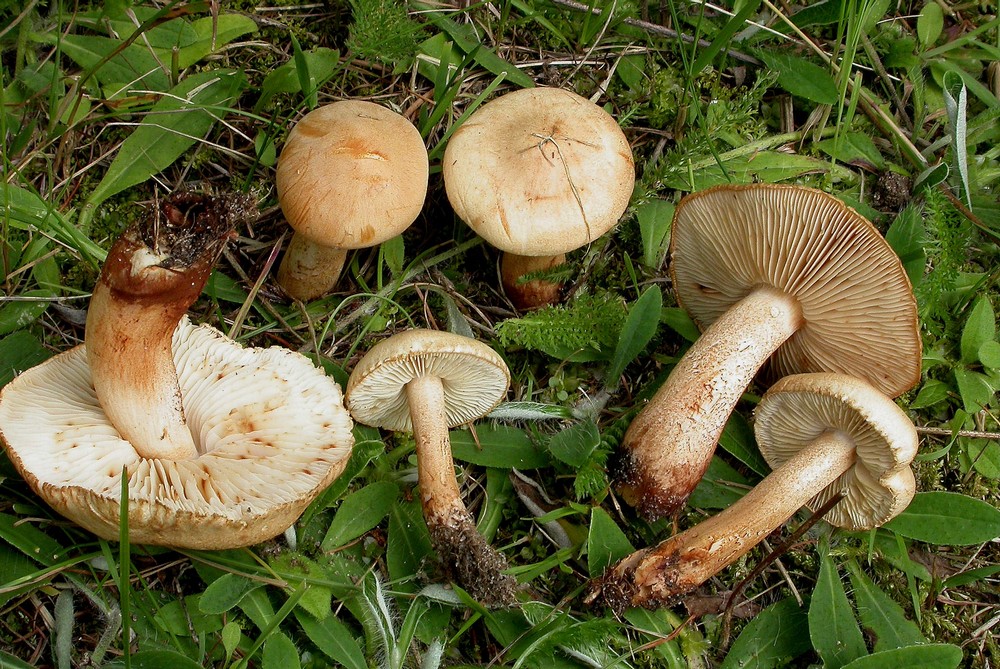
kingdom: Fungi
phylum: Basidiomycota
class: Agaricomycetes
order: Agaricales
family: Tricholomataceae
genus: Tricholoma
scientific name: Tricholoma psammopus
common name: grynstokket ridderhat
